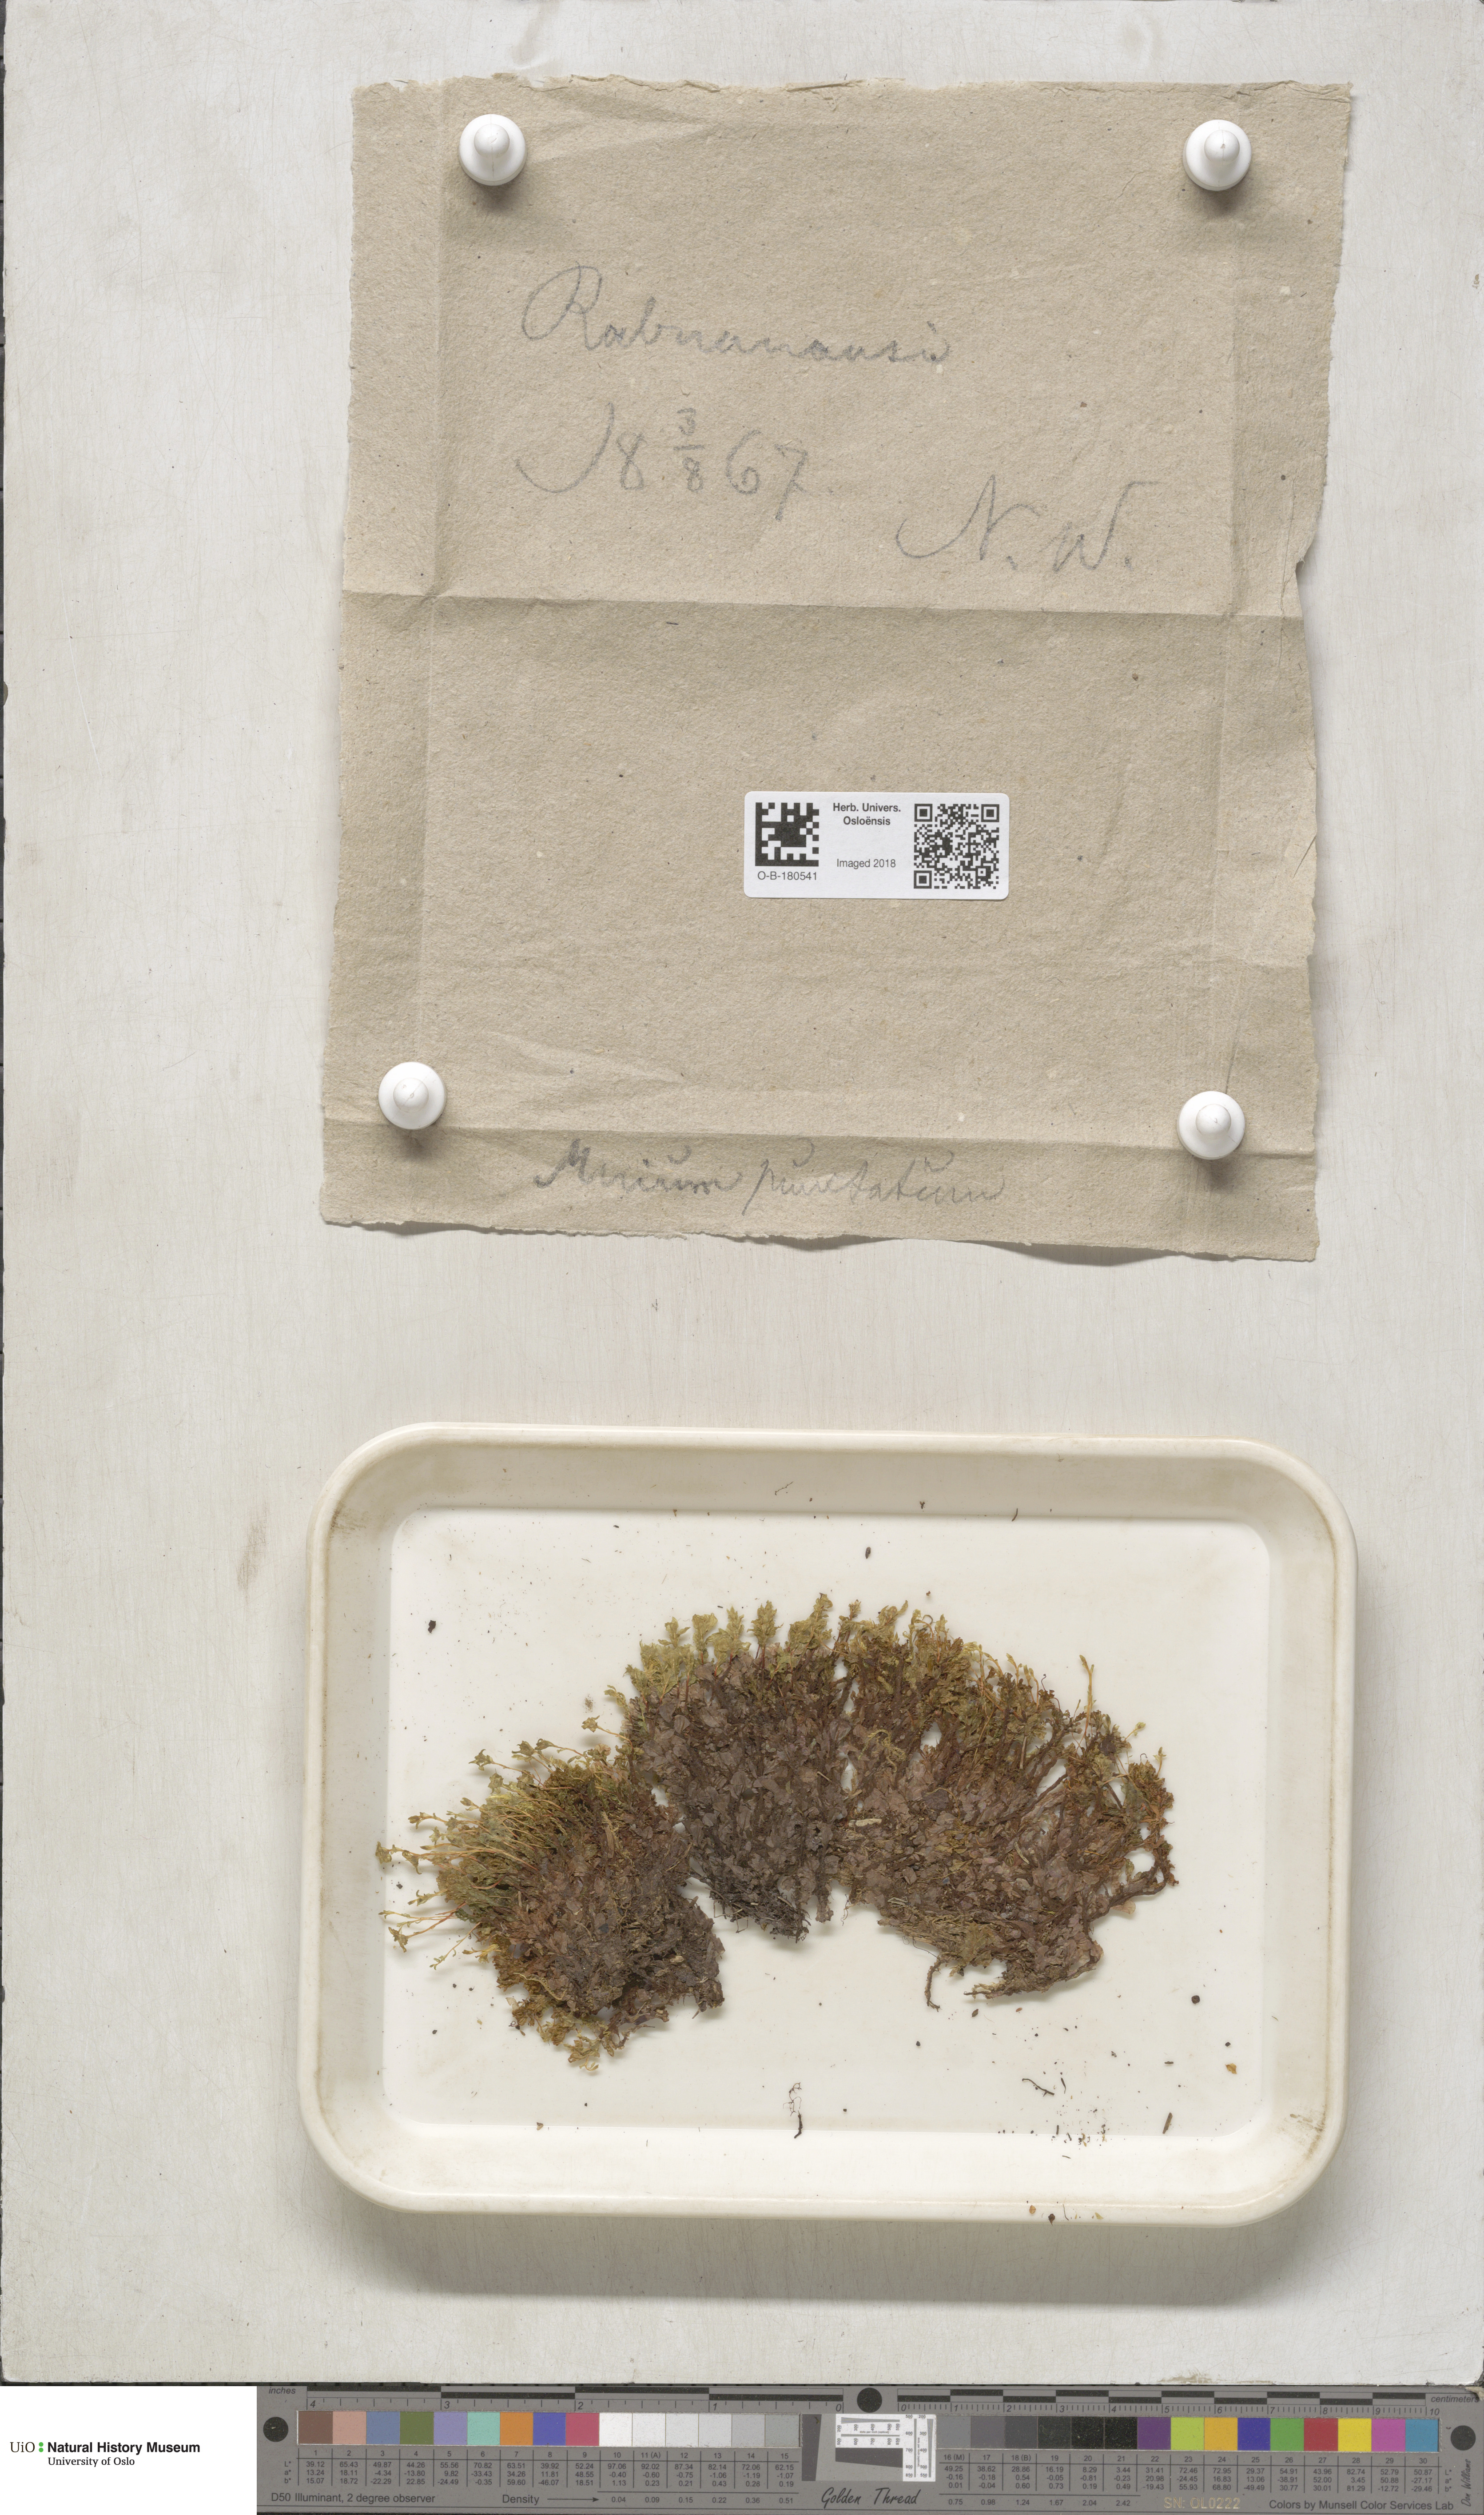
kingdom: Plantae
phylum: Bryophyta
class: Bryopsida
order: Bryales
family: Mniaceae
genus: Rhizomnium
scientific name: Rhizomnium punctatum
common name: Dotted leafy moss
